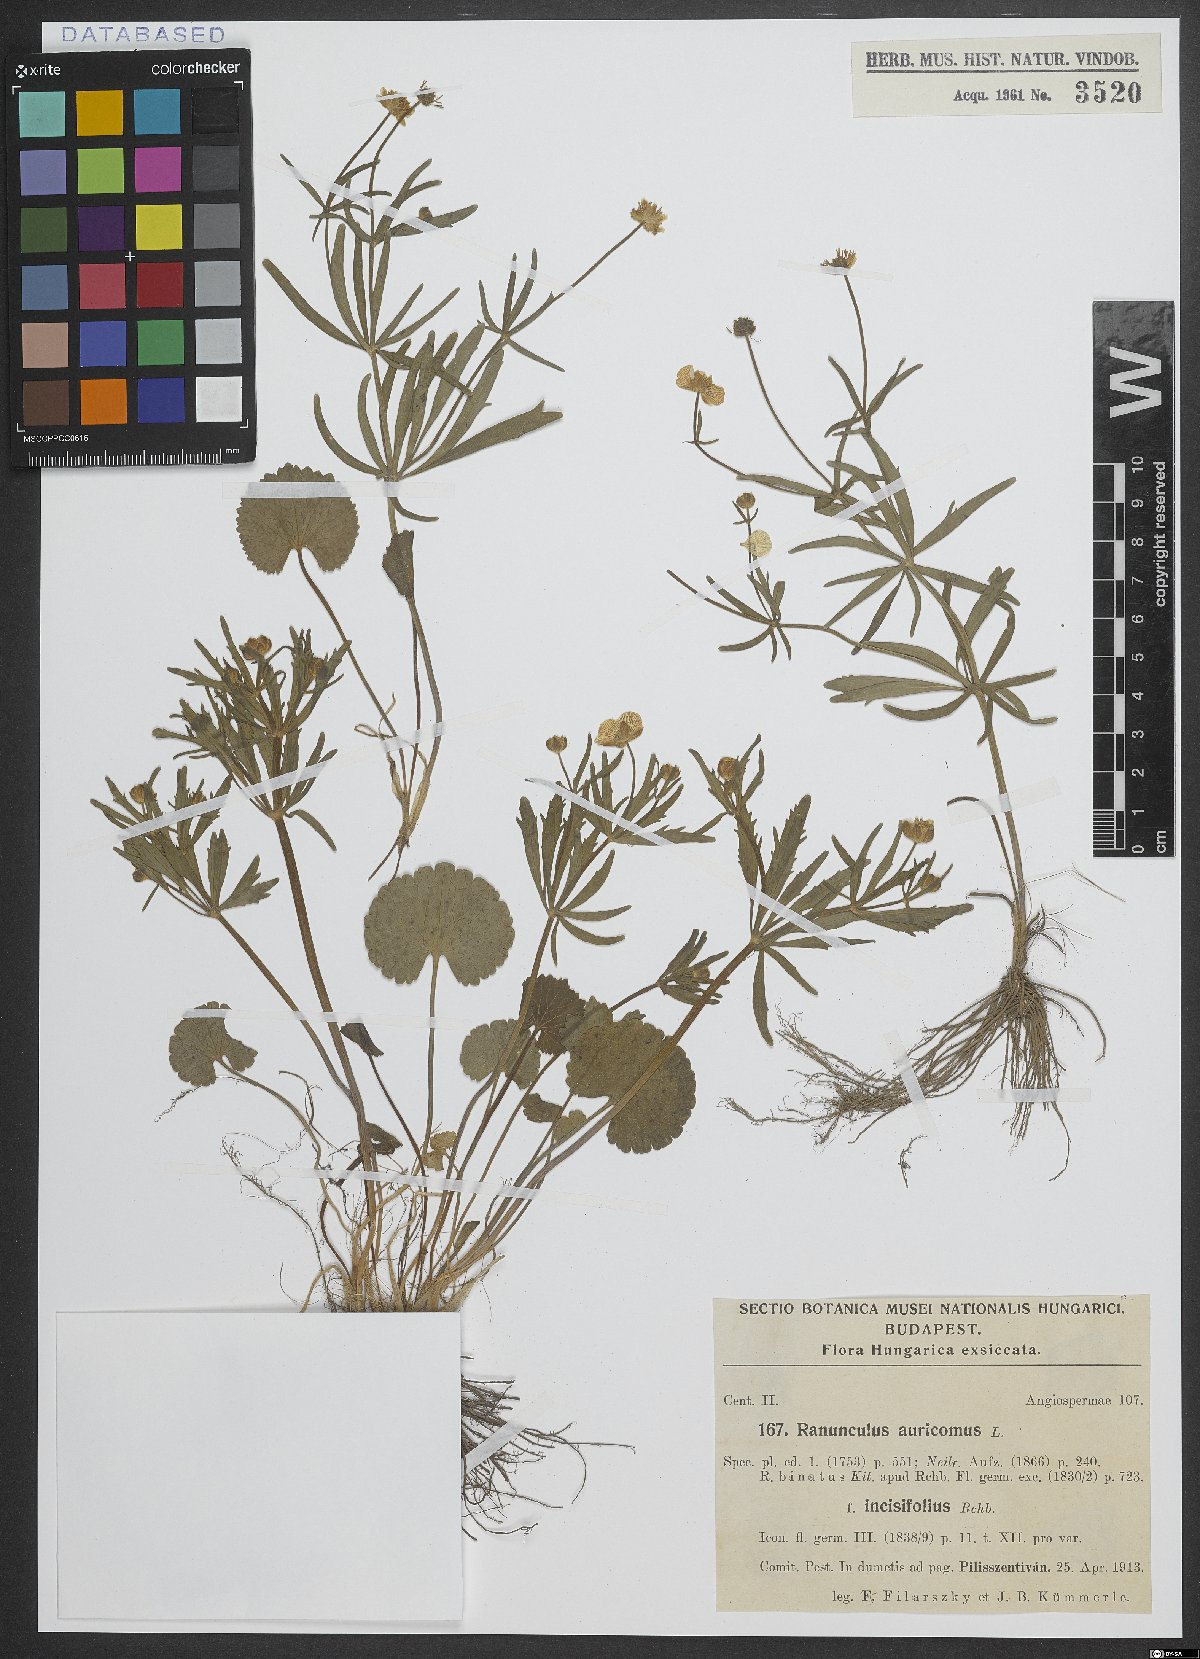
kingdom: Plantae
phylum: Tracheophyta
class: Magnoliopsida
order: Ranunculales
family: Ranunculaceae
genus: Ranunculus
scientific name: Ranunculus auricomus
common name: Goldilocks buttercup
